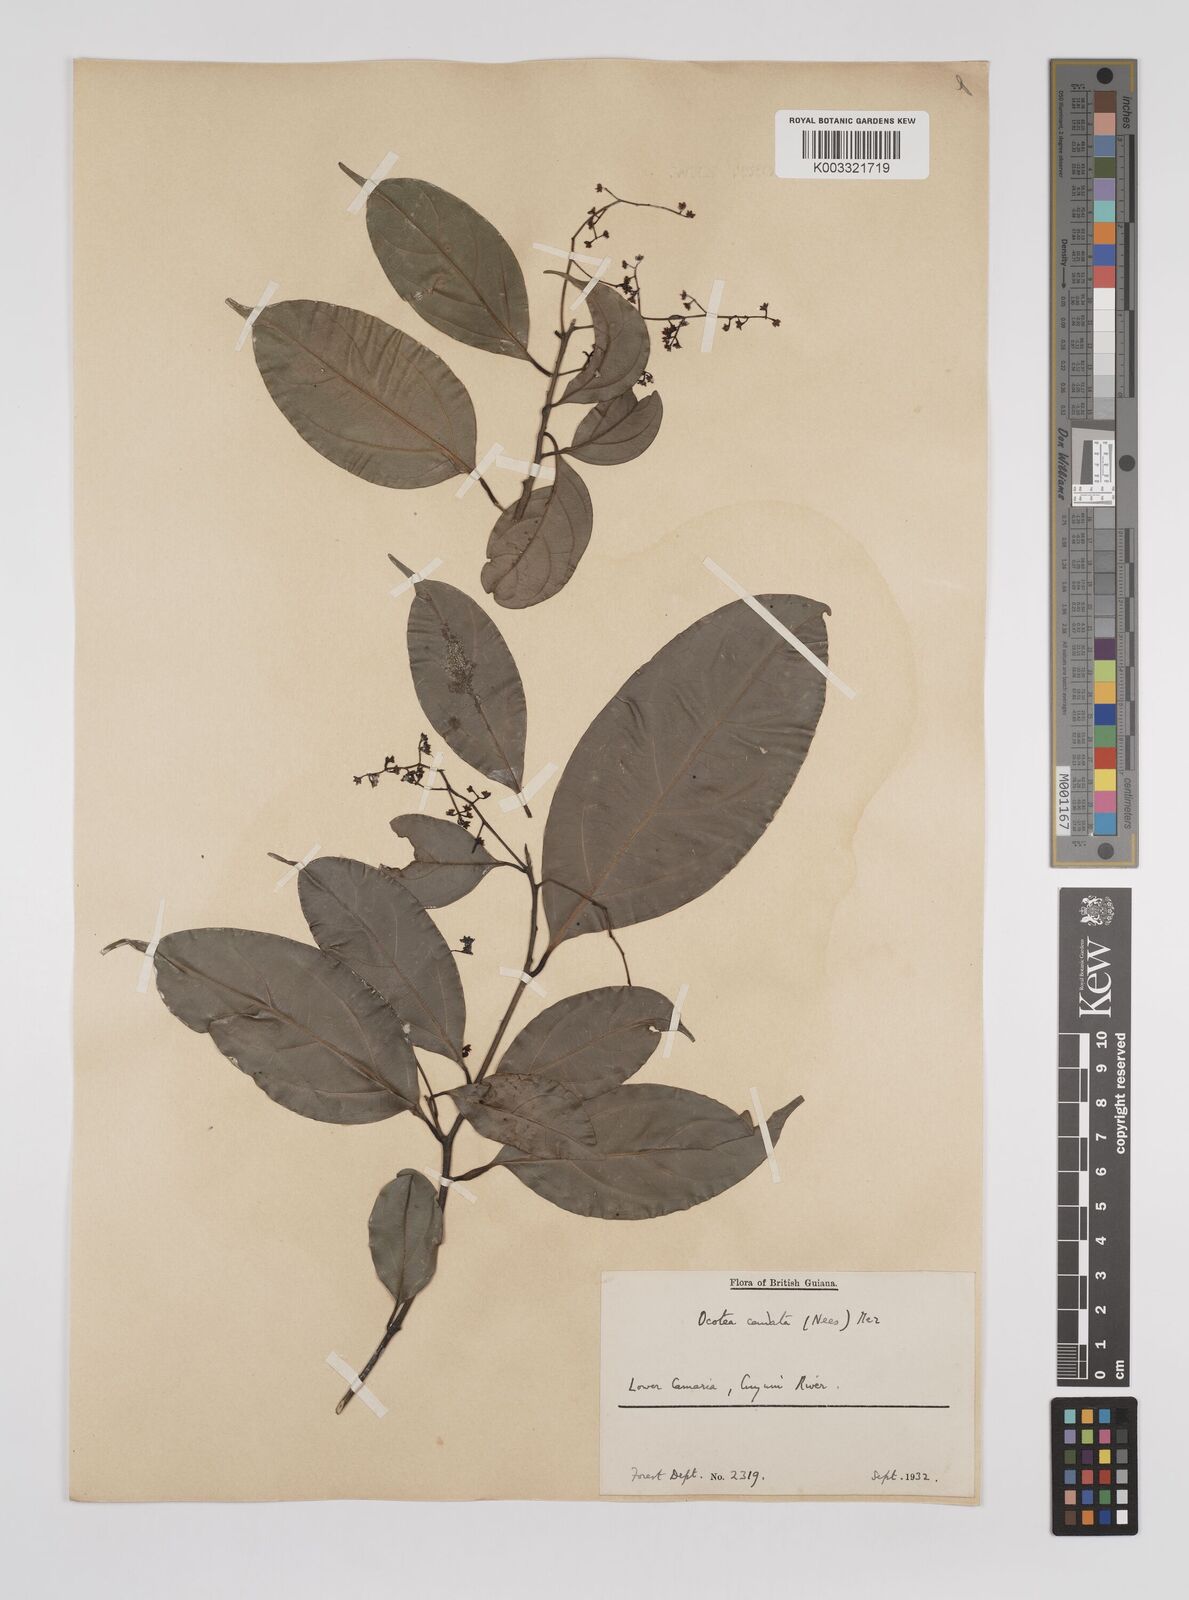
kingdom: Plantae
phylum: Tracheophyta
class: Magnoliopsida
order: Laurales
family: Lauraceae
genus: Ocotea
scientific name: Ocotea leptobotra
